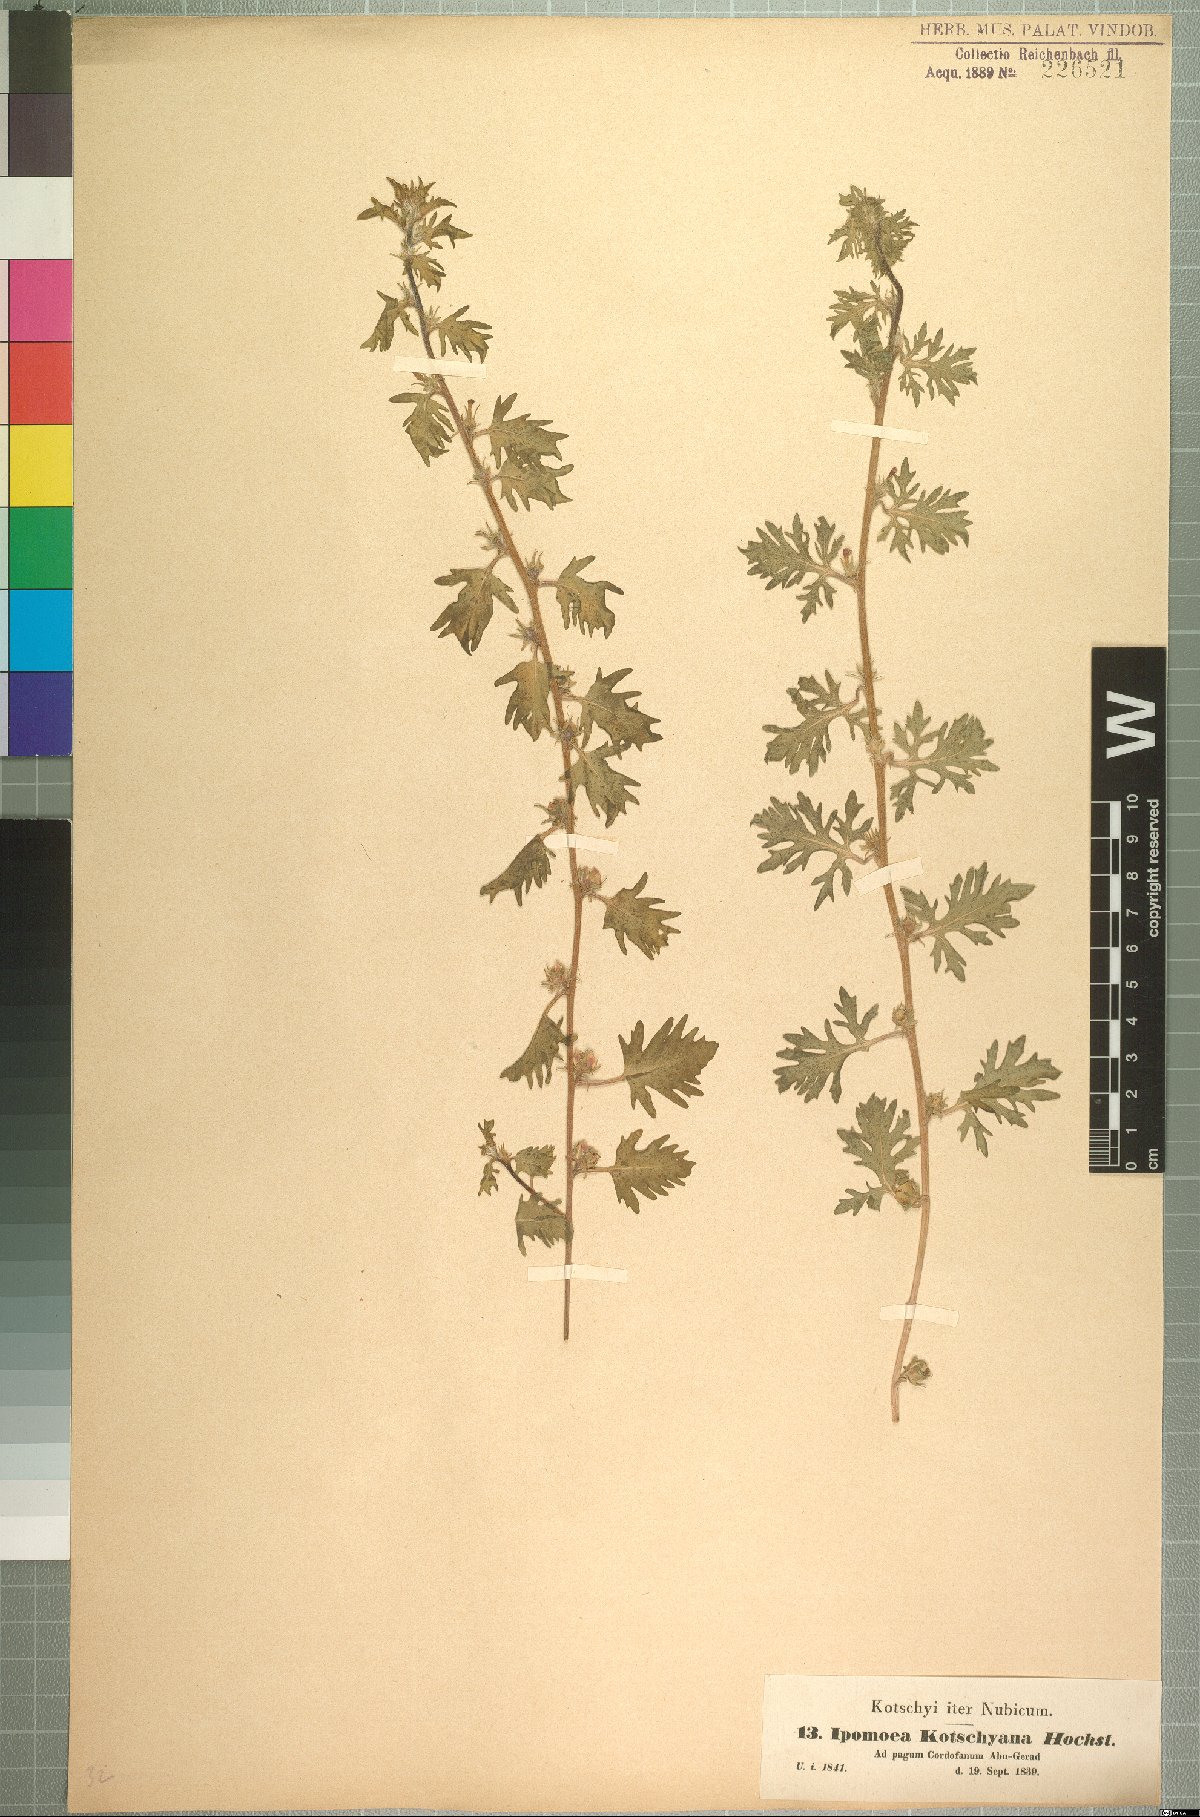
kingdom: Plantae
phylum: Tracheophyta
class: Magnoliopsida
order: Solanales
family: Convolvulaceae
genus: Ipomoea
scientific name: Ipomoea kotschyana
